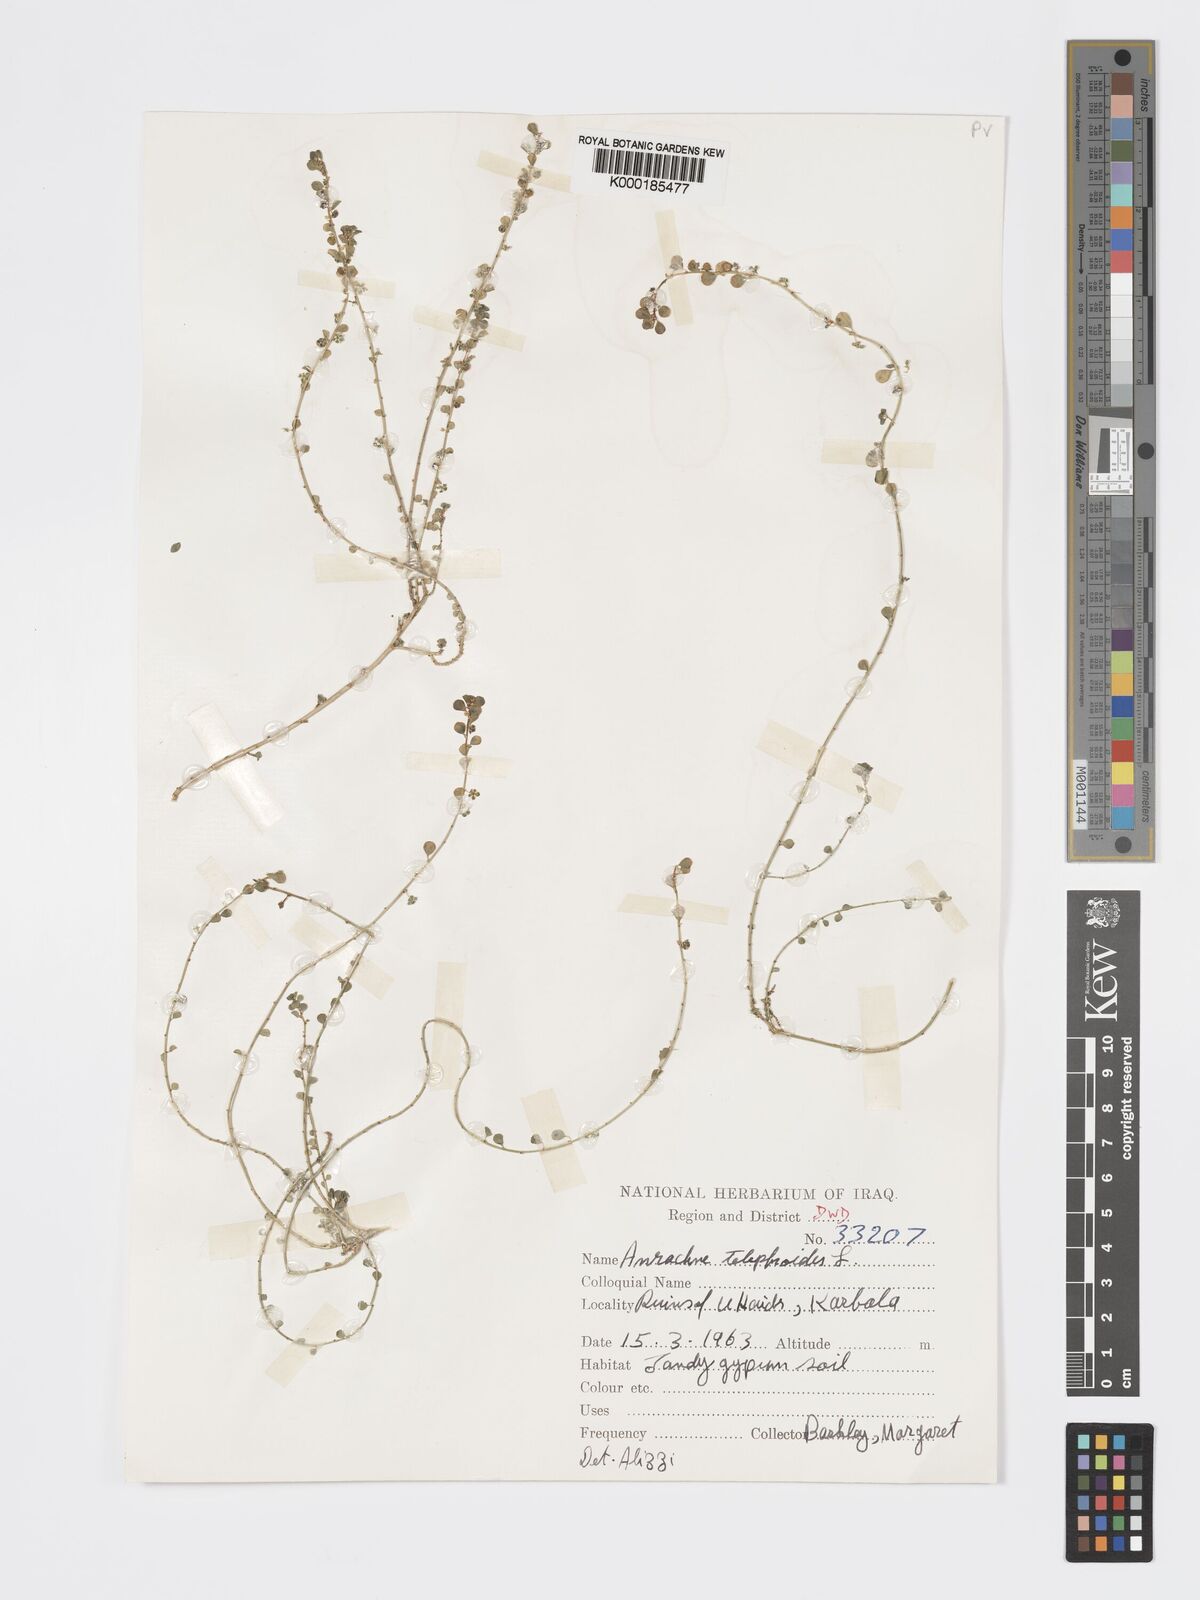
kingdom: Plantae
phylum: Tracheophyta
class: Magnoliopsida
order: Malpighiales
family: Phyllanthaceae
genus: Andrachne
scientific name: Andrachne telephioides
